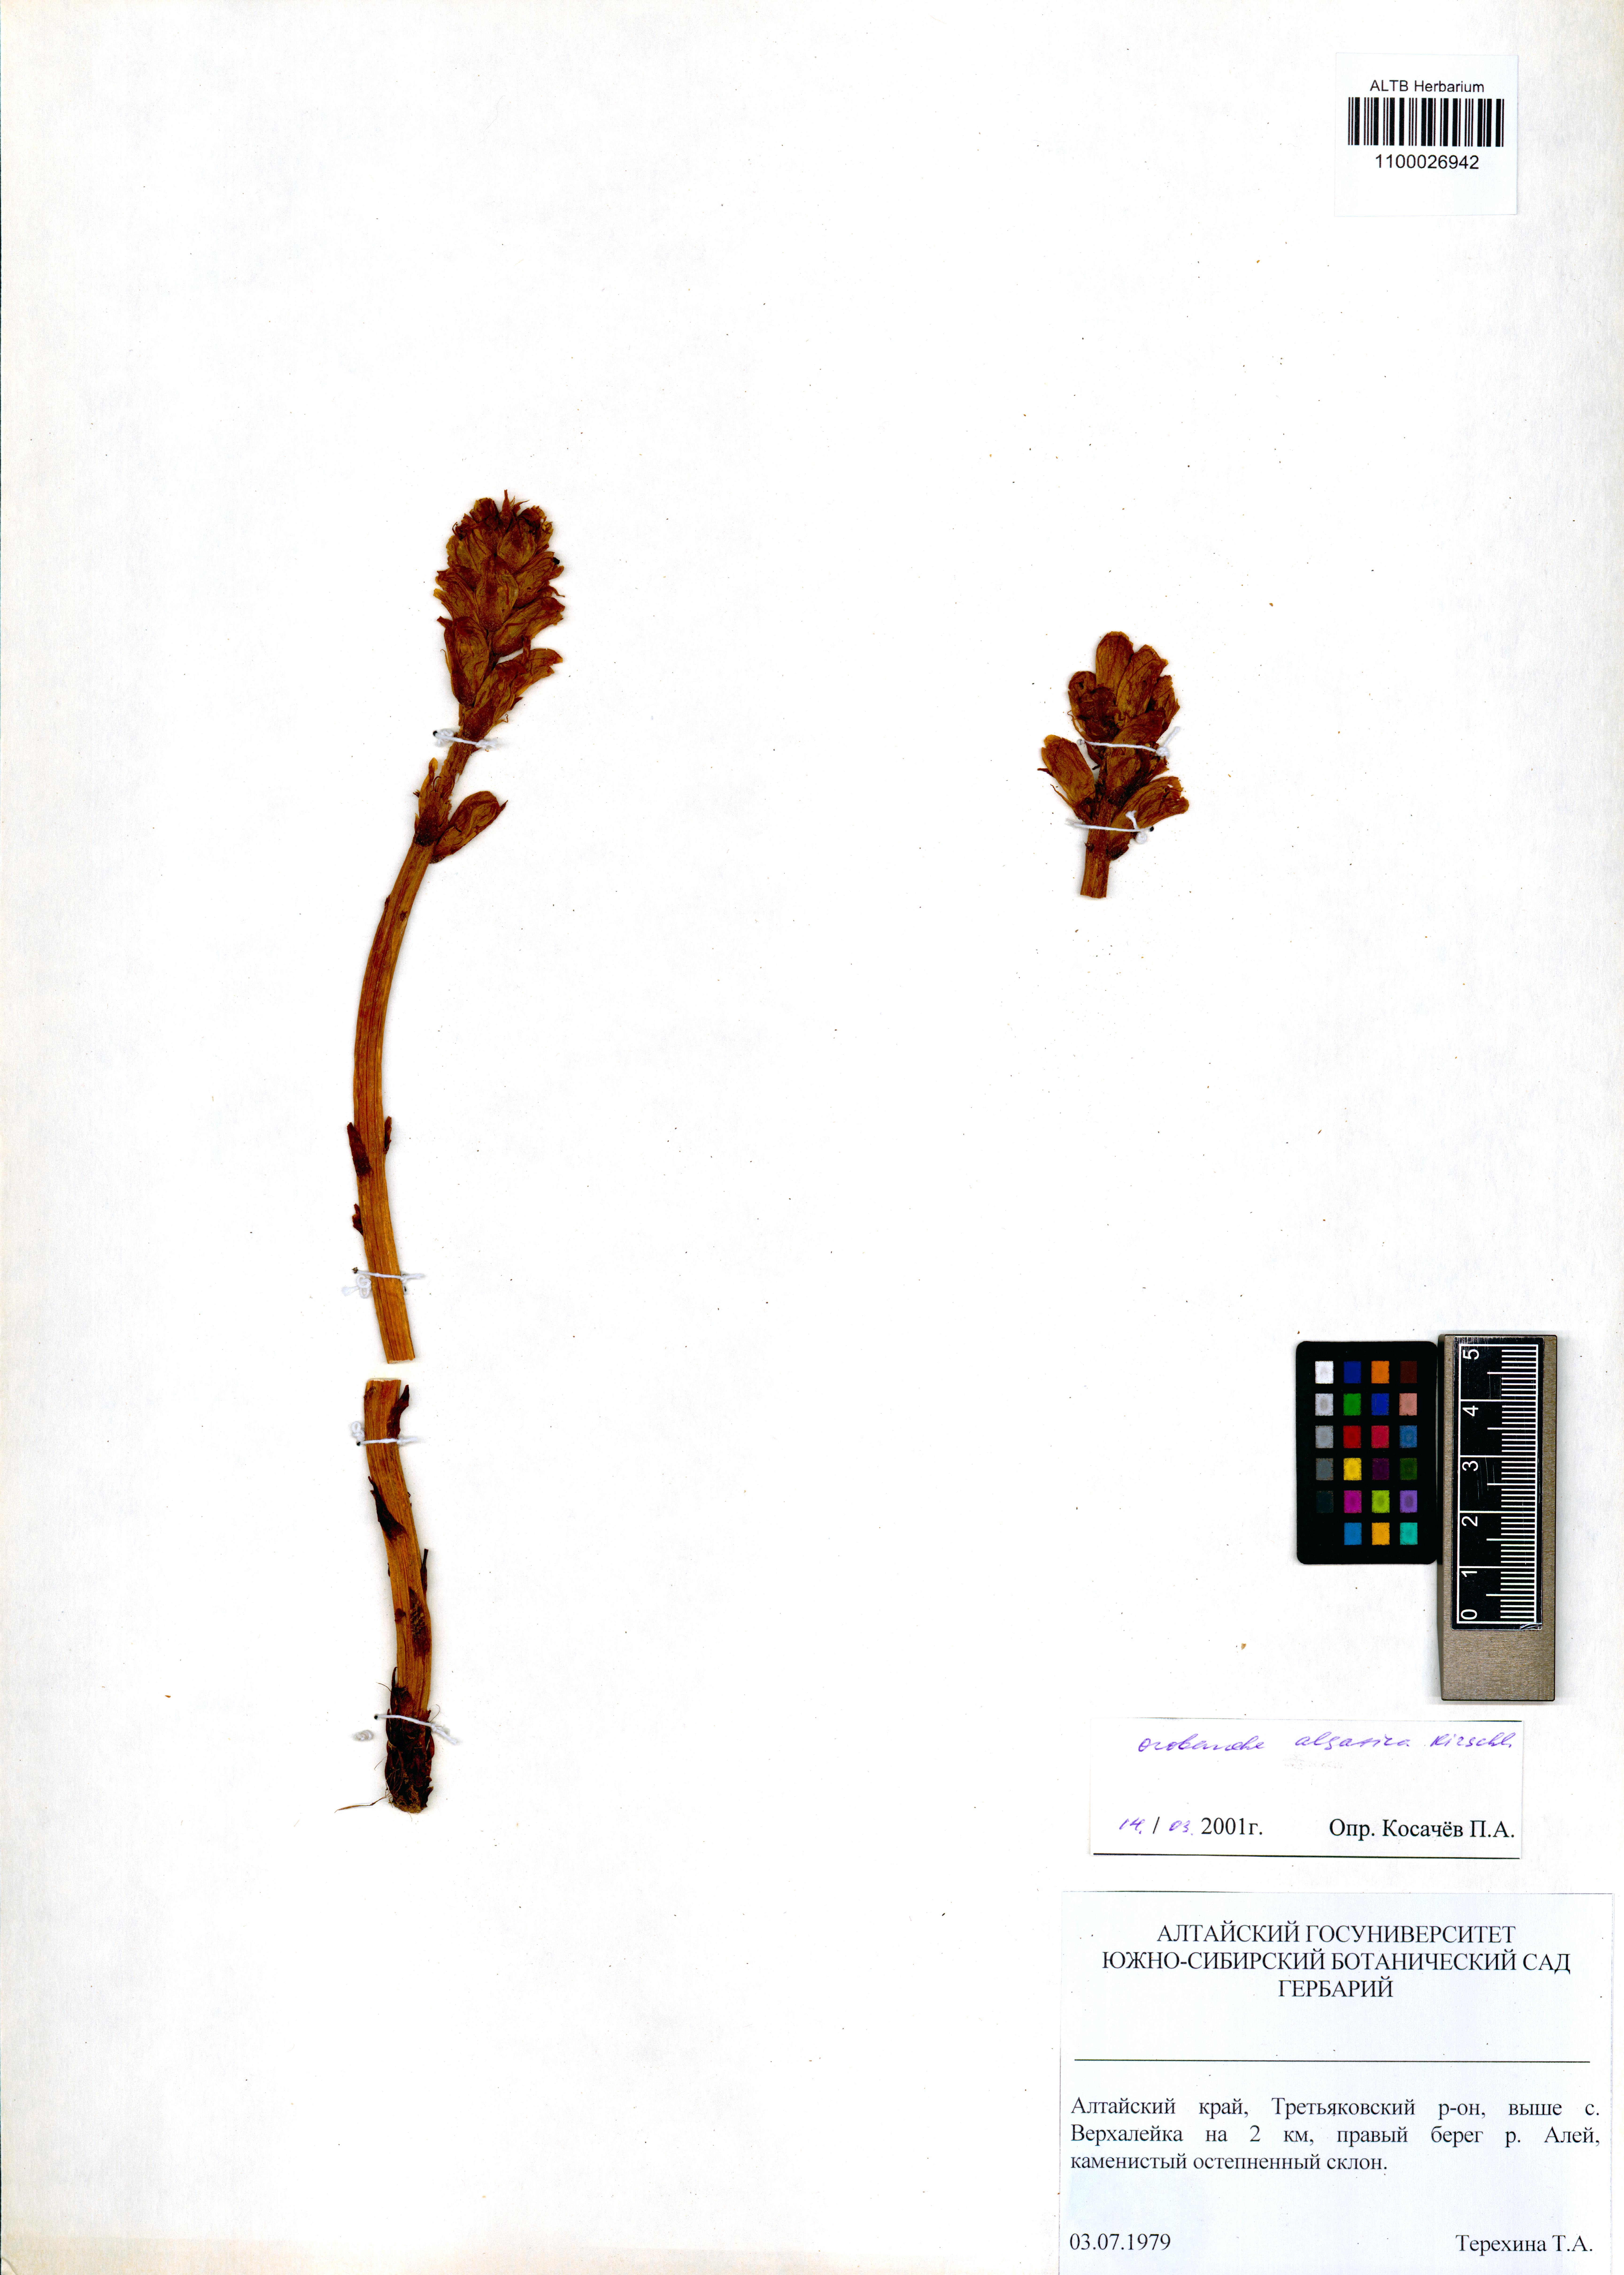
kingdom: Plantae
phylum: Tracheophyta
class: Magnoliopsida
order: Lamiales
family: Orobanchaceae
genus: Orobanche
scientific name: Orobanche alsatica
